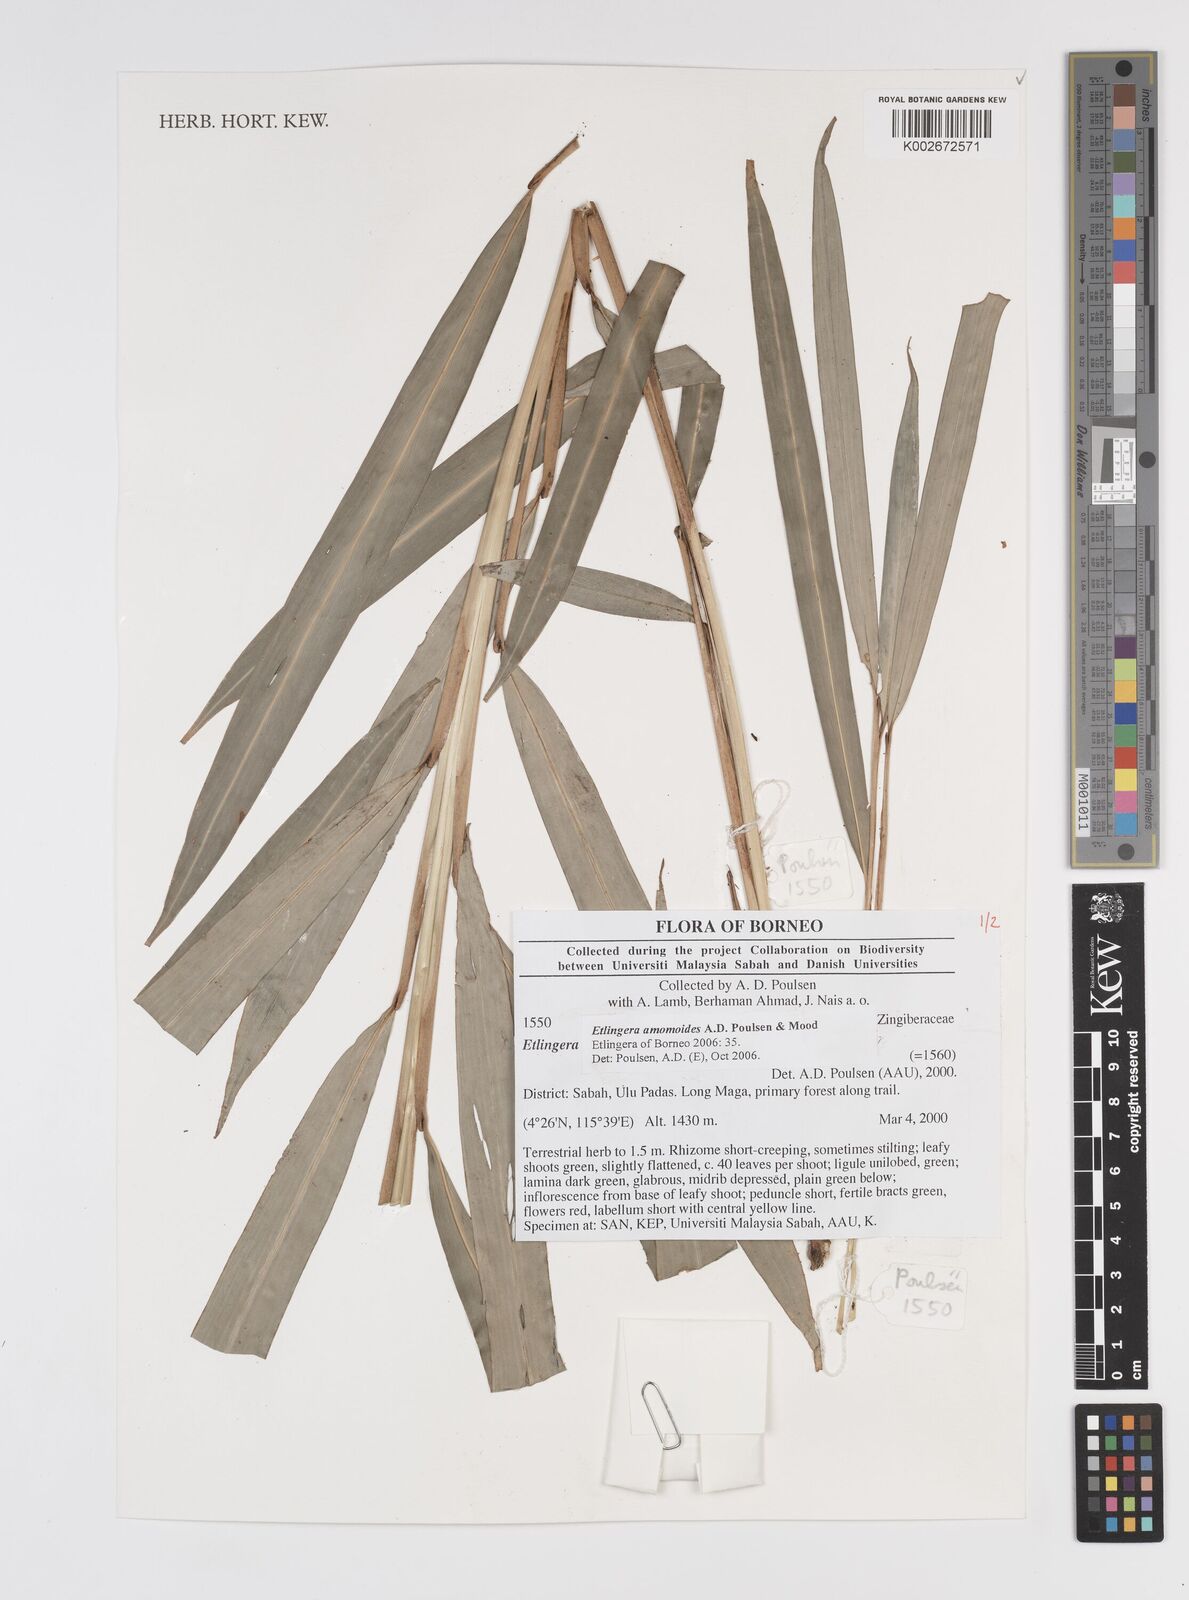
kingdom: Plantae
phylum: Tracheophyta
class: Liliopsida
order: Zingiberales
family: Zingiberaceae
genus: Etlingera
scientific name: Etlingera amomoides
